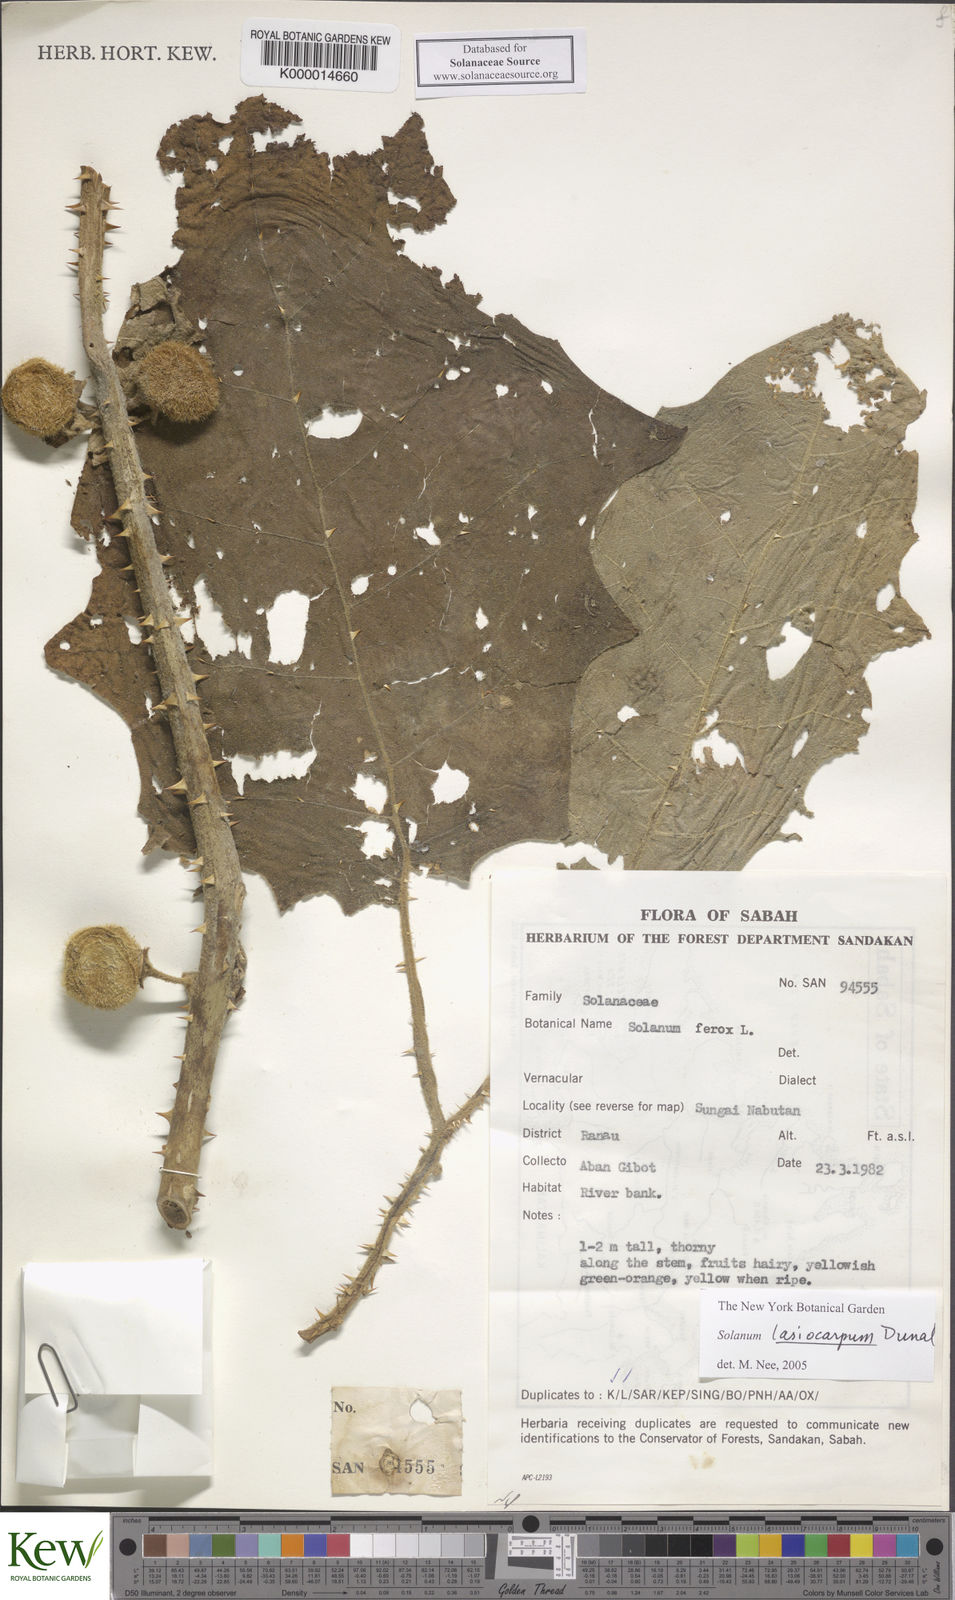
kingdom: Plantae
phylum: Tracheophyta
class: Magnoliopsida
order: Solanales
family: Solanaceae
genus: Solanum
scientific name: Solanum lasiocarpum
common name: Indian nightshade
